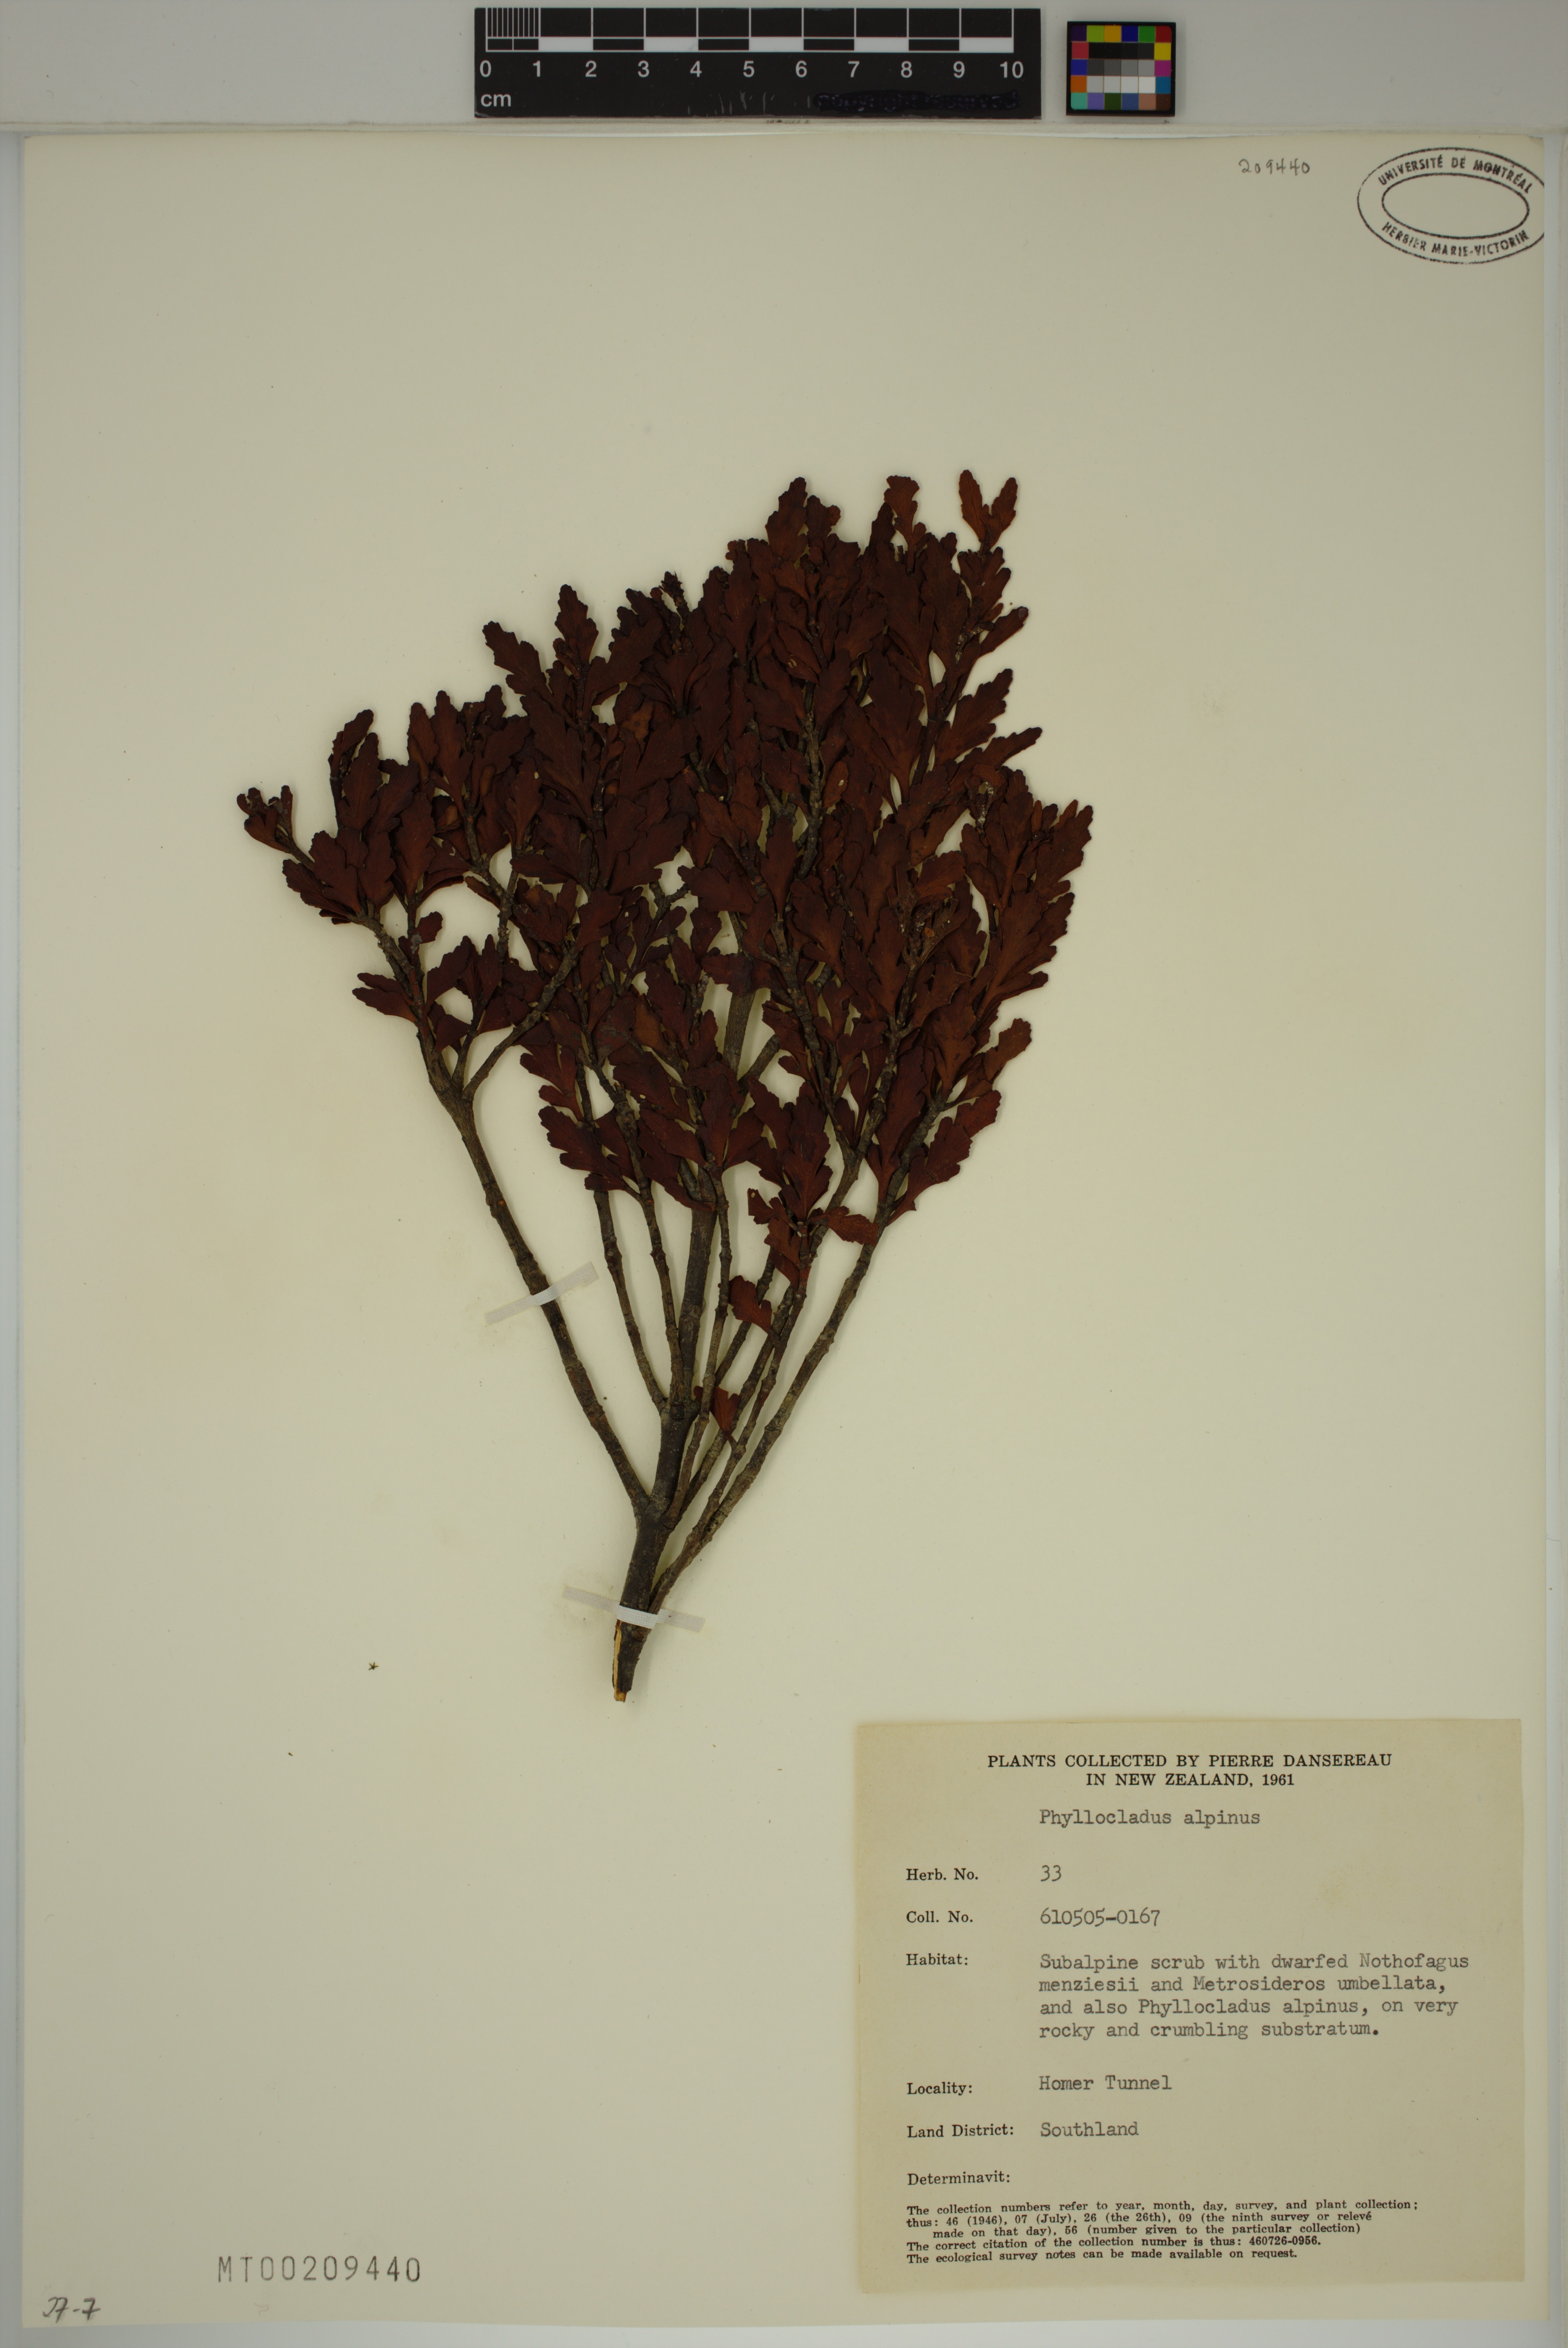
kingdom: Plantae
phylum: Tracheophyta
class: Pinopsida
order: Pinales
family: Phyllocladaceae
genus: Phyllocladus
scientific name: Phyllocladus trichomanoides
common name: Celery pine
